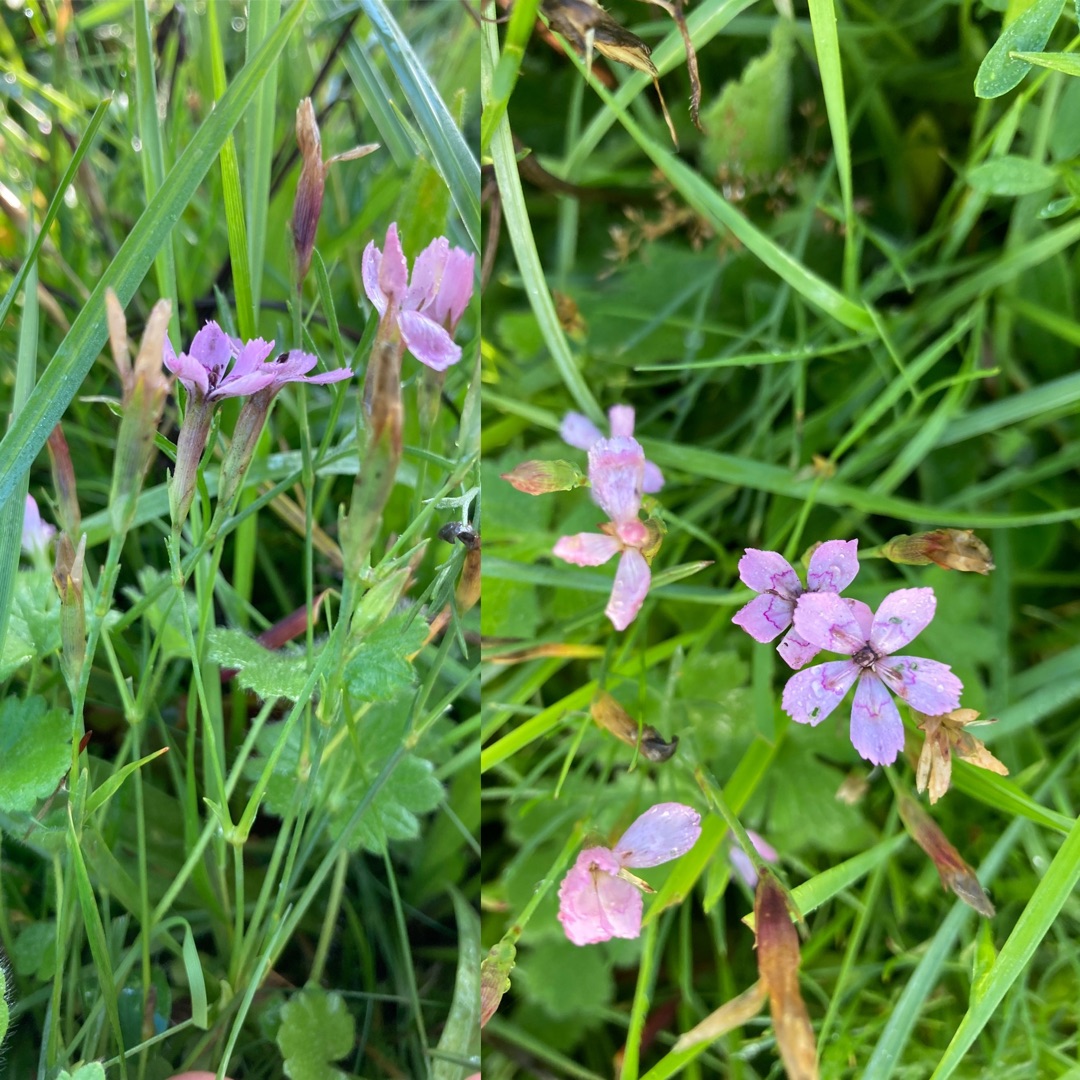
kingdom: Plantae
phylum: Tracheophyta
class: Magnoliopsida
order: Caryophyllales
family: Caryophyllaceae
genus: Dianthus
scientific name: Dianthus deltoides
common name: Bakke-nellike
